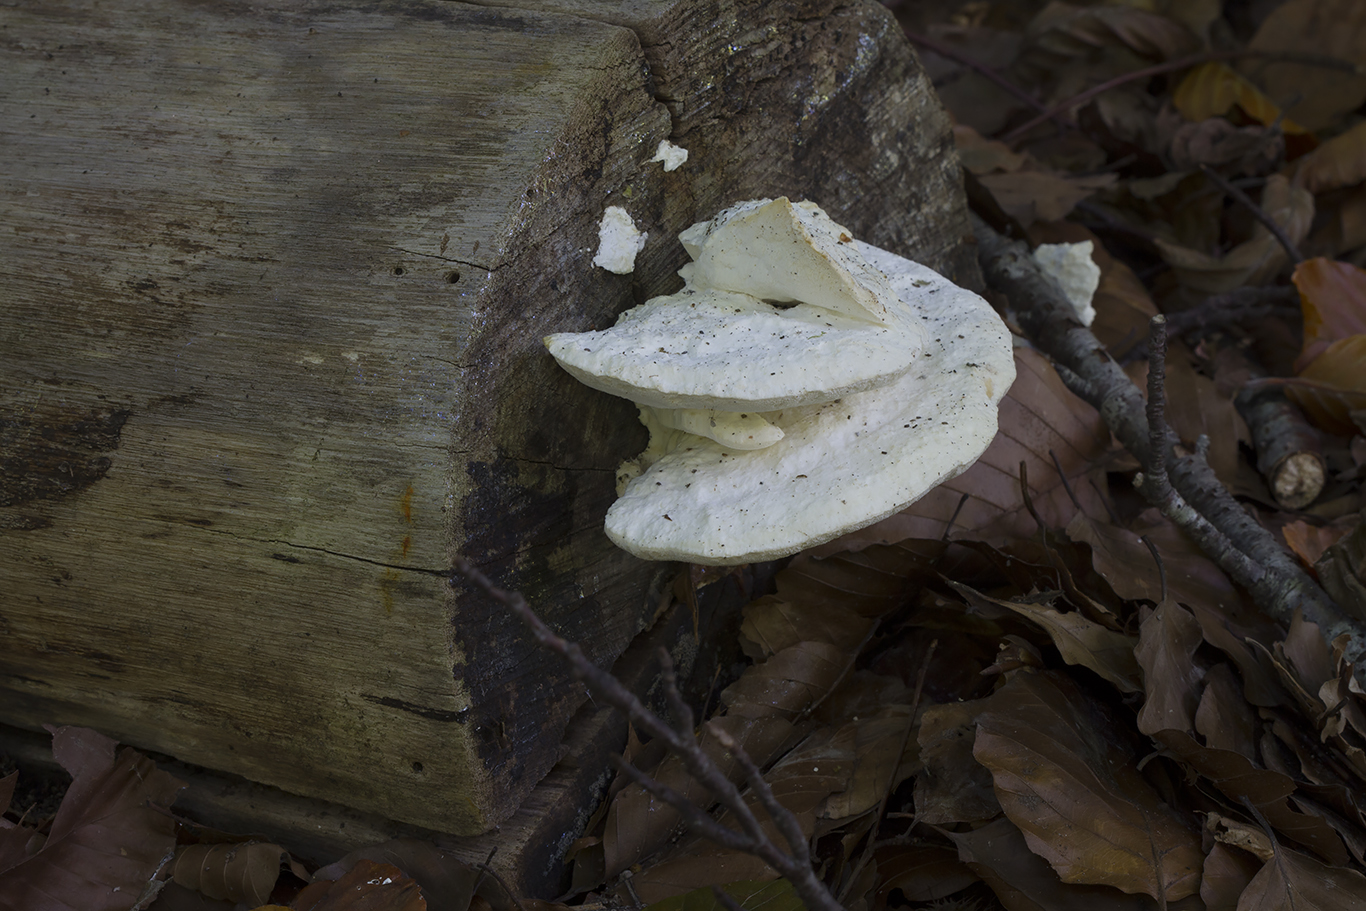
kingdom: Fungi
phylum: Basidiomycota
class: Agaricomycetes
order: Polyporales
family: Incrustoporiaceae
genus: Tyromyces
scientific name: Tyromyces chioneus
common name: stor blødporesvamp
